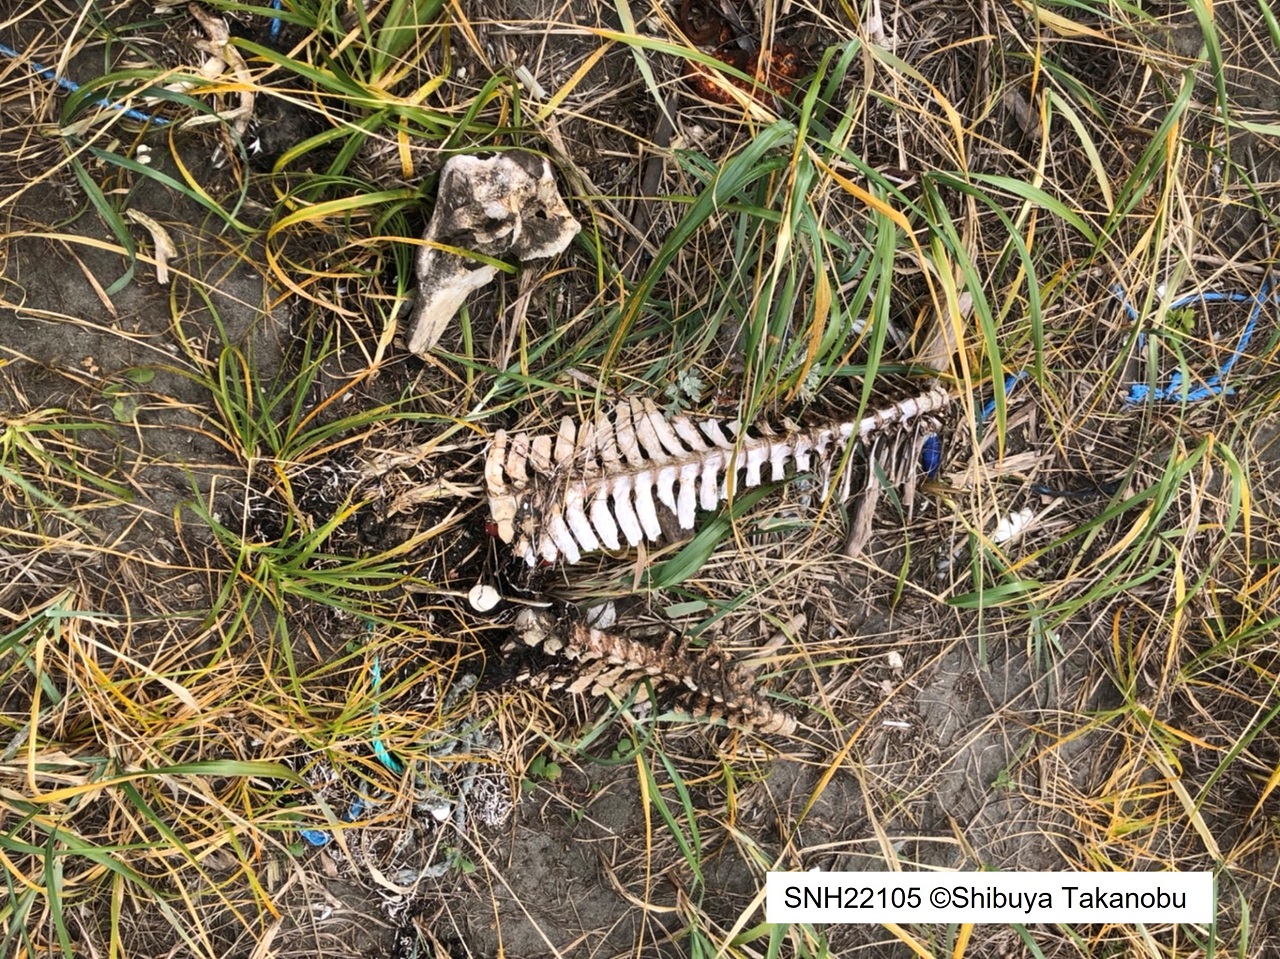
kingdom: Animalia
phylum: Chordata
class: Mammalia
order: Cetacea
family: Phocoenidae
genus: Phocoena
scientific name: Phocoena phocoena
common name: Harbour porpoise
